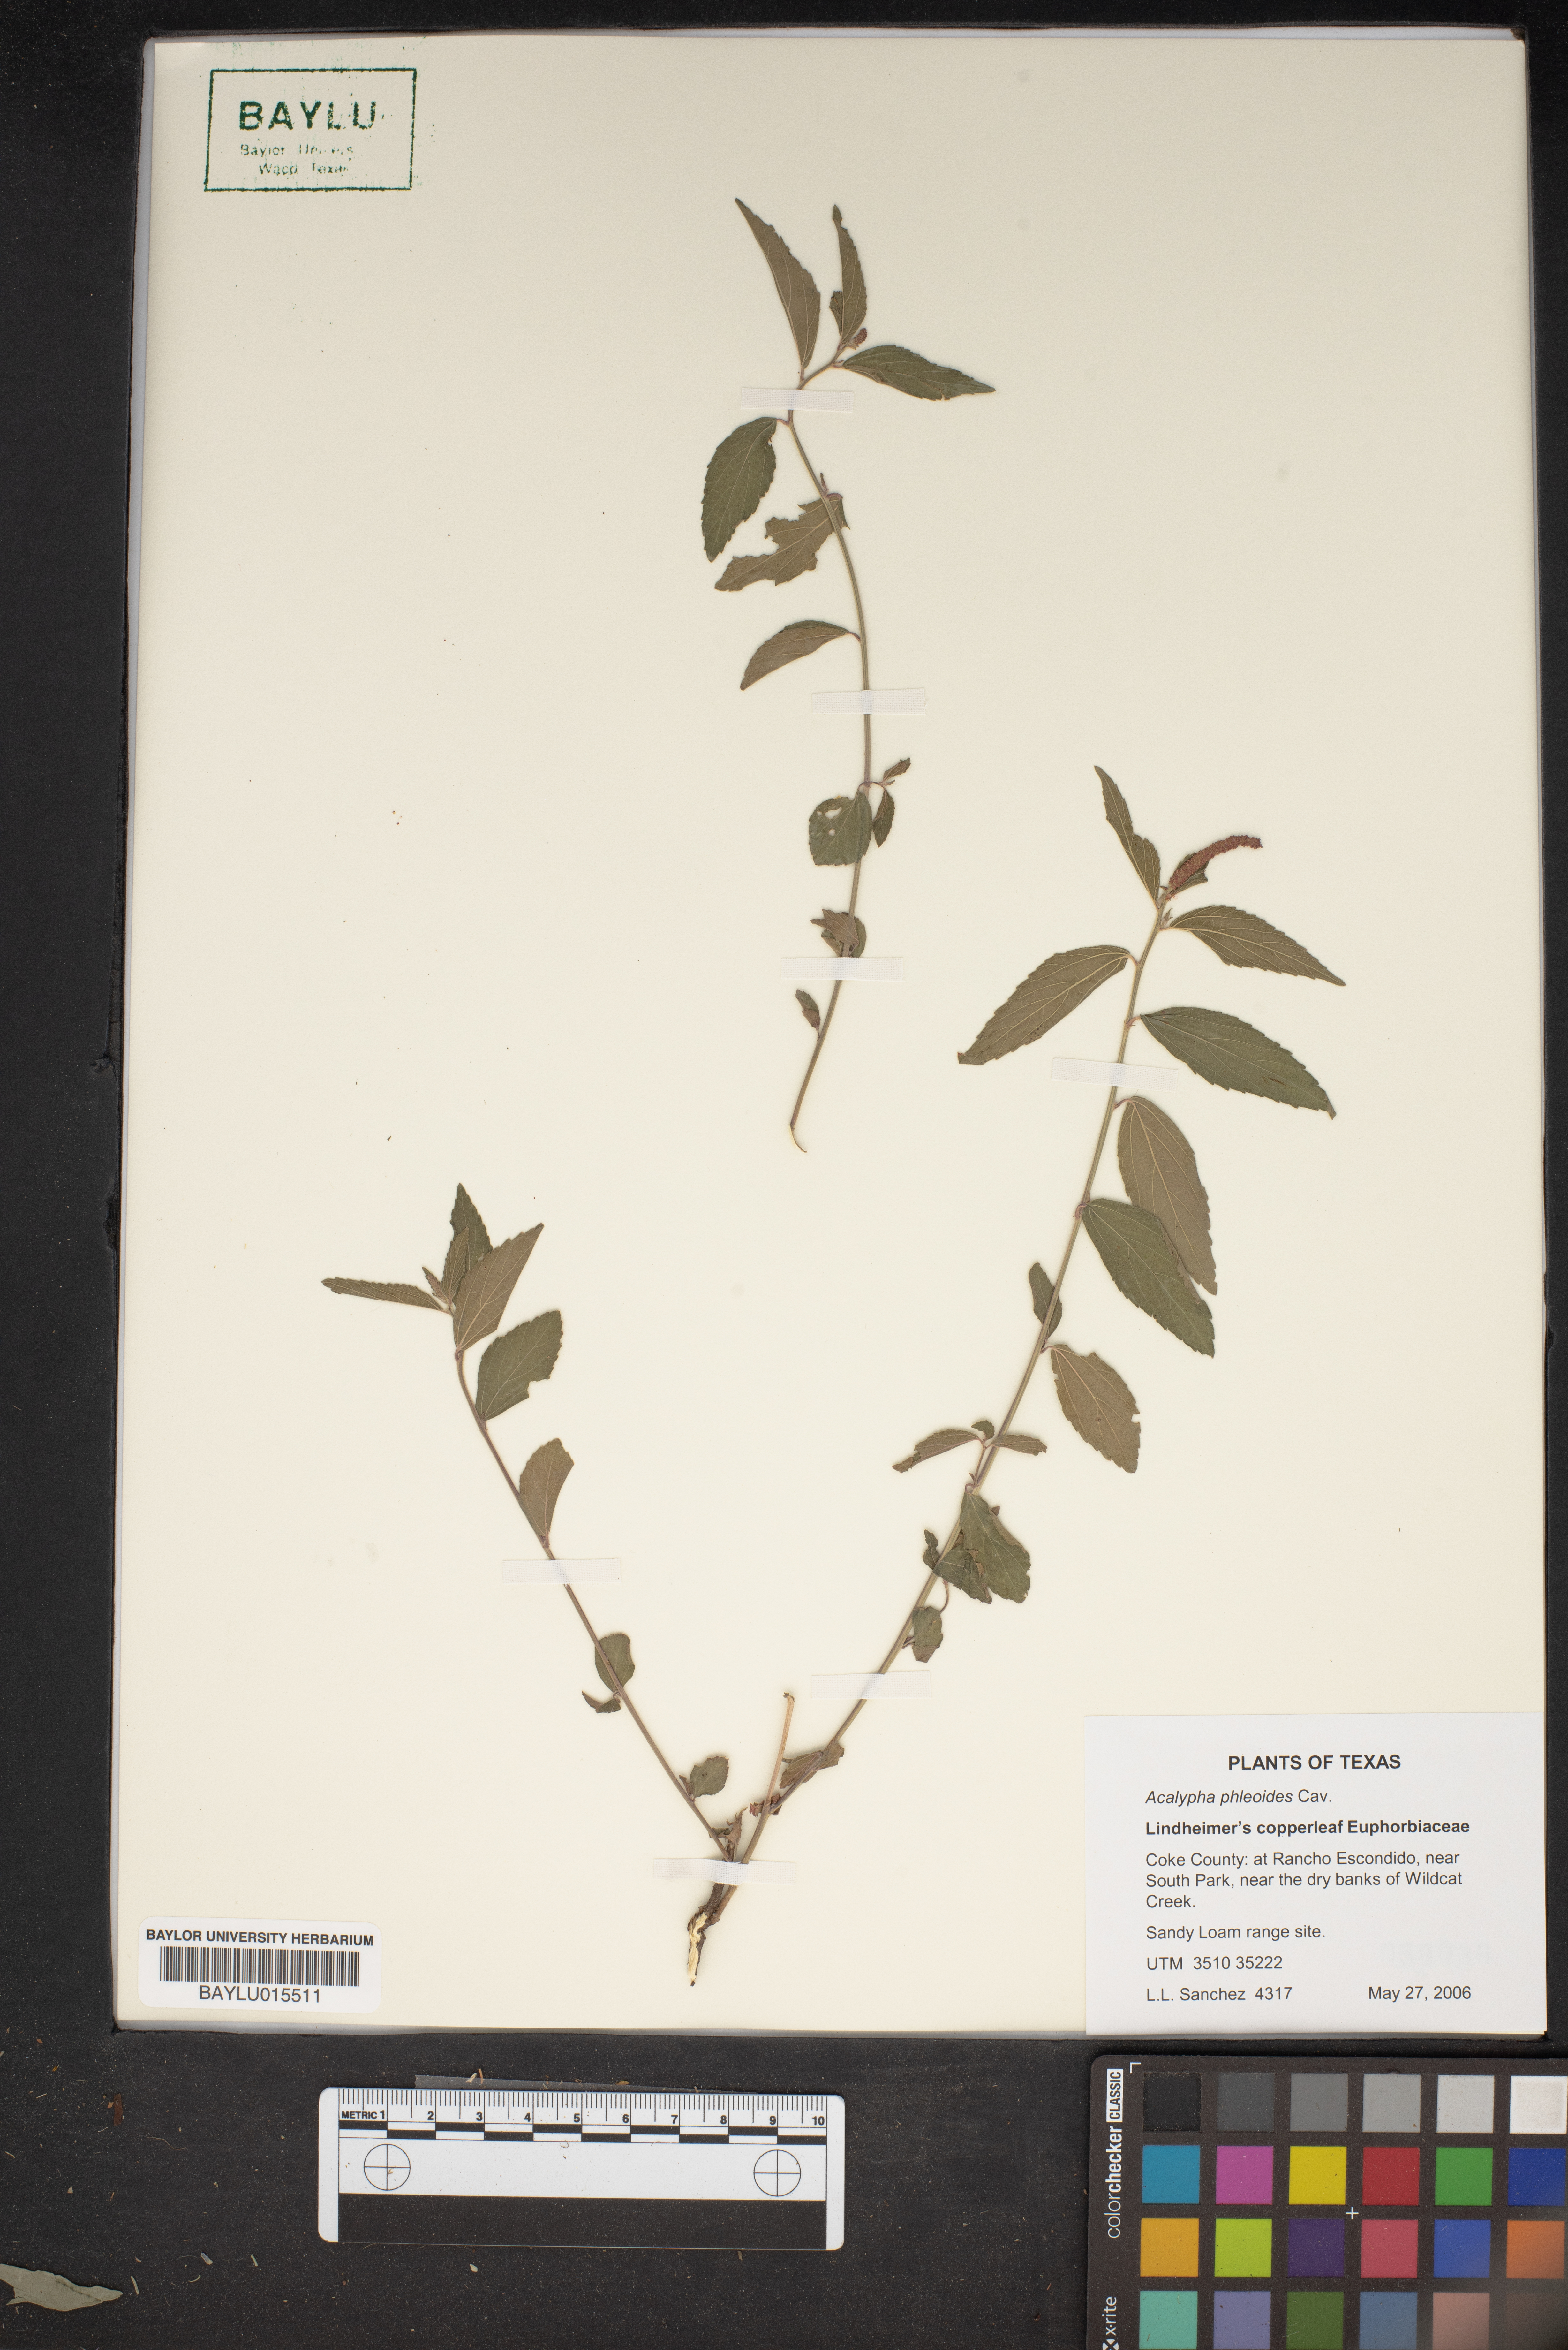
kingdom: Plantae
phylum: Tracheophyta
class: Magnoliopsida
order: Malpighiales
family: Euphorbiaceae
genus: Acalypha
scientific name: Acalypha phleoides
